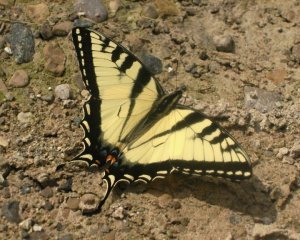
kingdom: Animalia
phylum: Arthropoda
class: Insecta
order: Lepidoptera
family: Papilionidae
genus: Pterourus
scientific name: Pterourus glaucus
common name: Eastern Tiger Swallowtail
